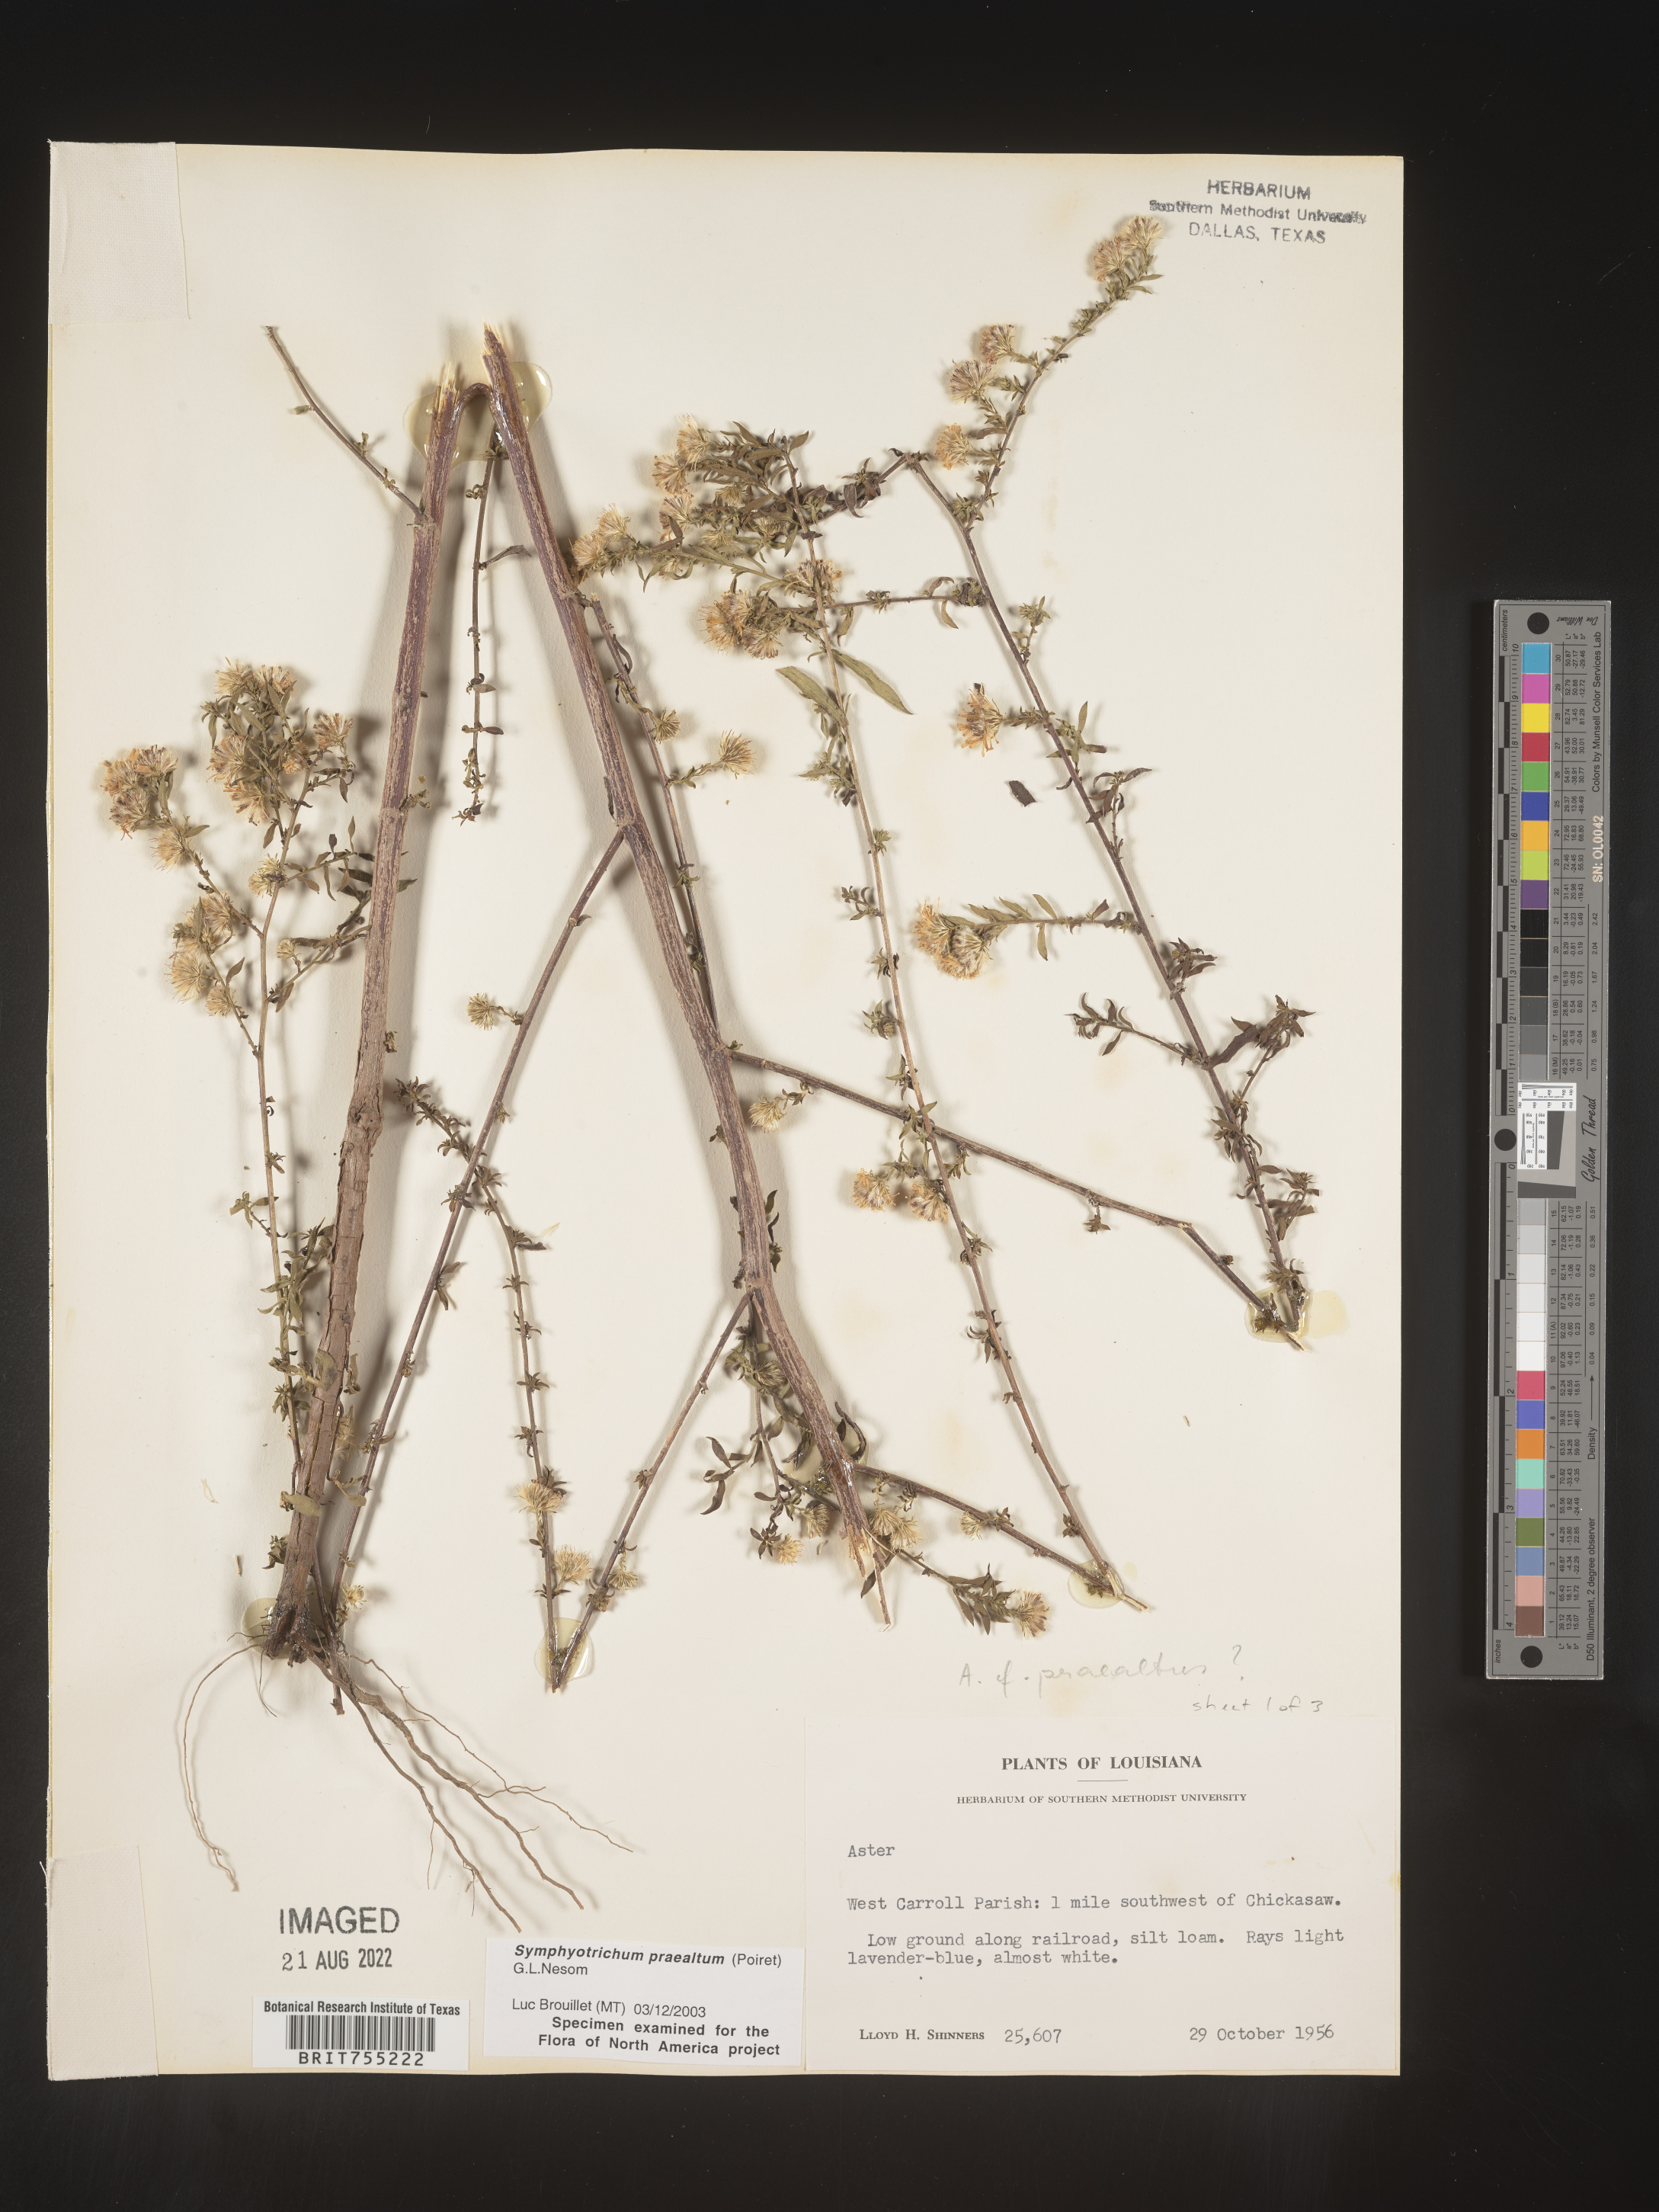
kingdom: Plantae
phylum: Tracheophyta
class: Magnoliopsida
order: Asterales
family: Asteraceae
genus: Symphyotrichum
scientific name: Symphyotrichum praealtum
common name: Willow aster
